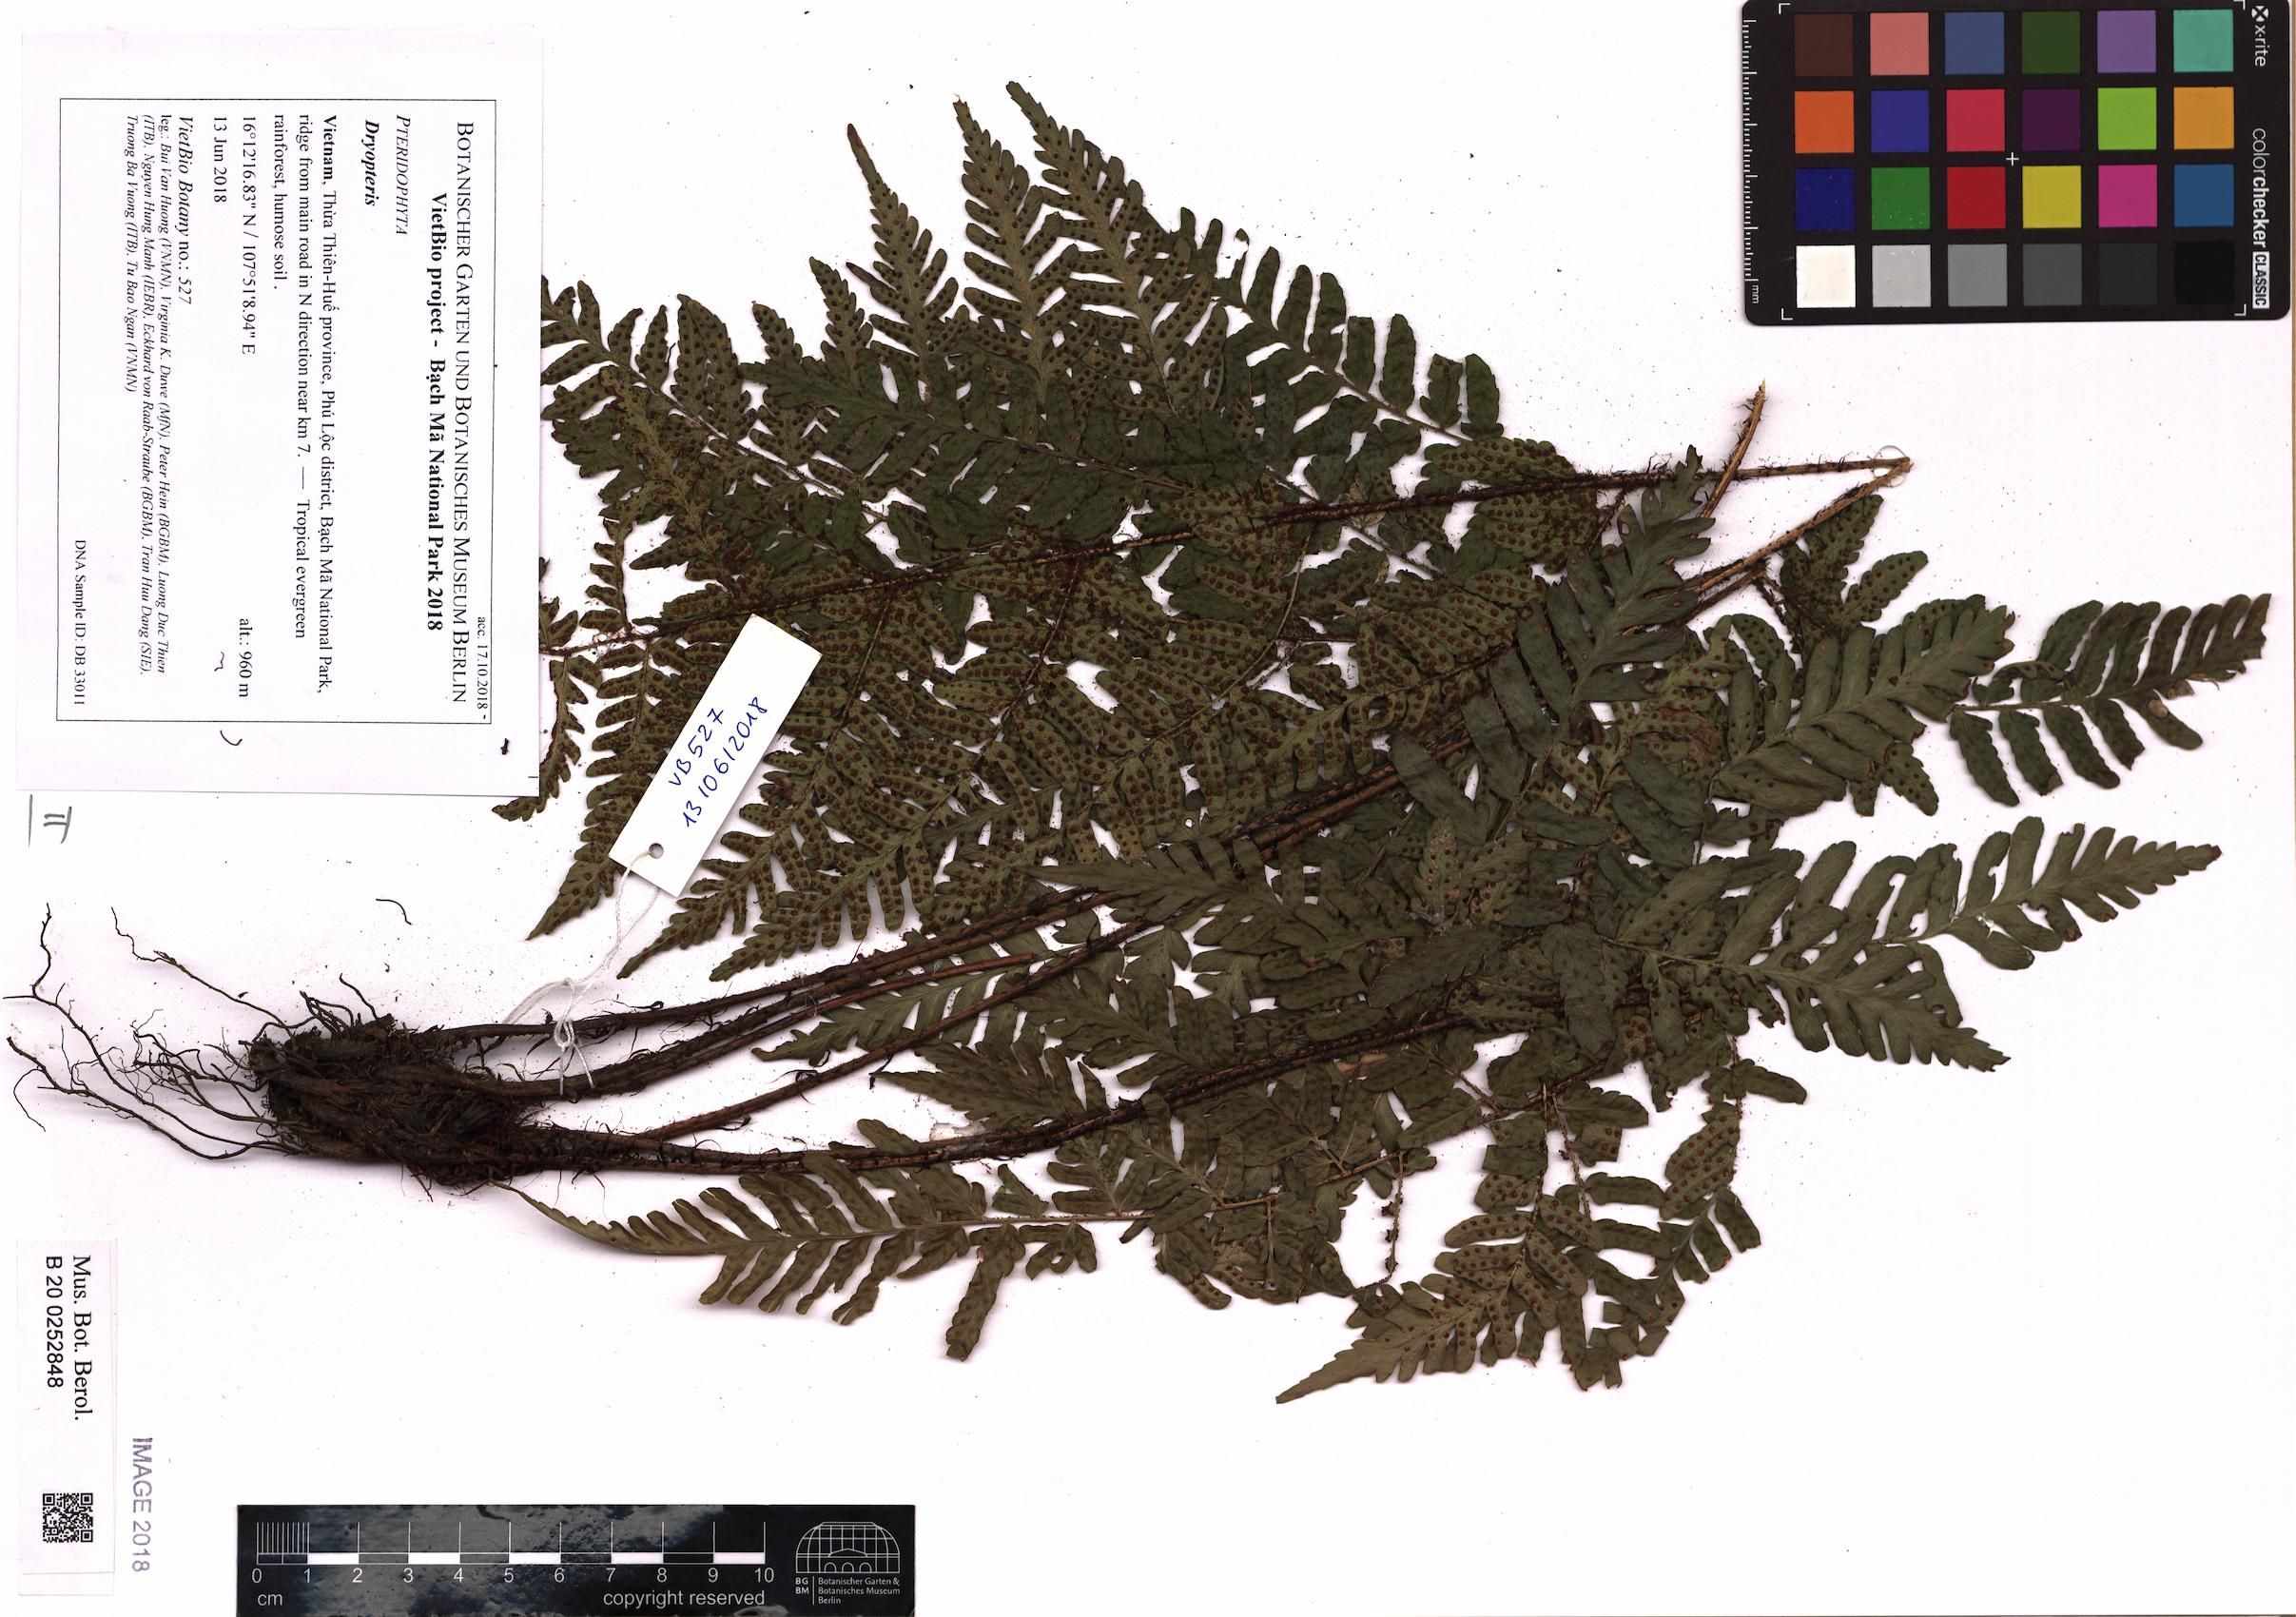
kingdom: Plantae
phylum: Tracheophyta
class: Polypodiopsida
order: Polypodiales
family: Dryopteridaceae
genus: Dryopteris
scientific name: Dryopteris
